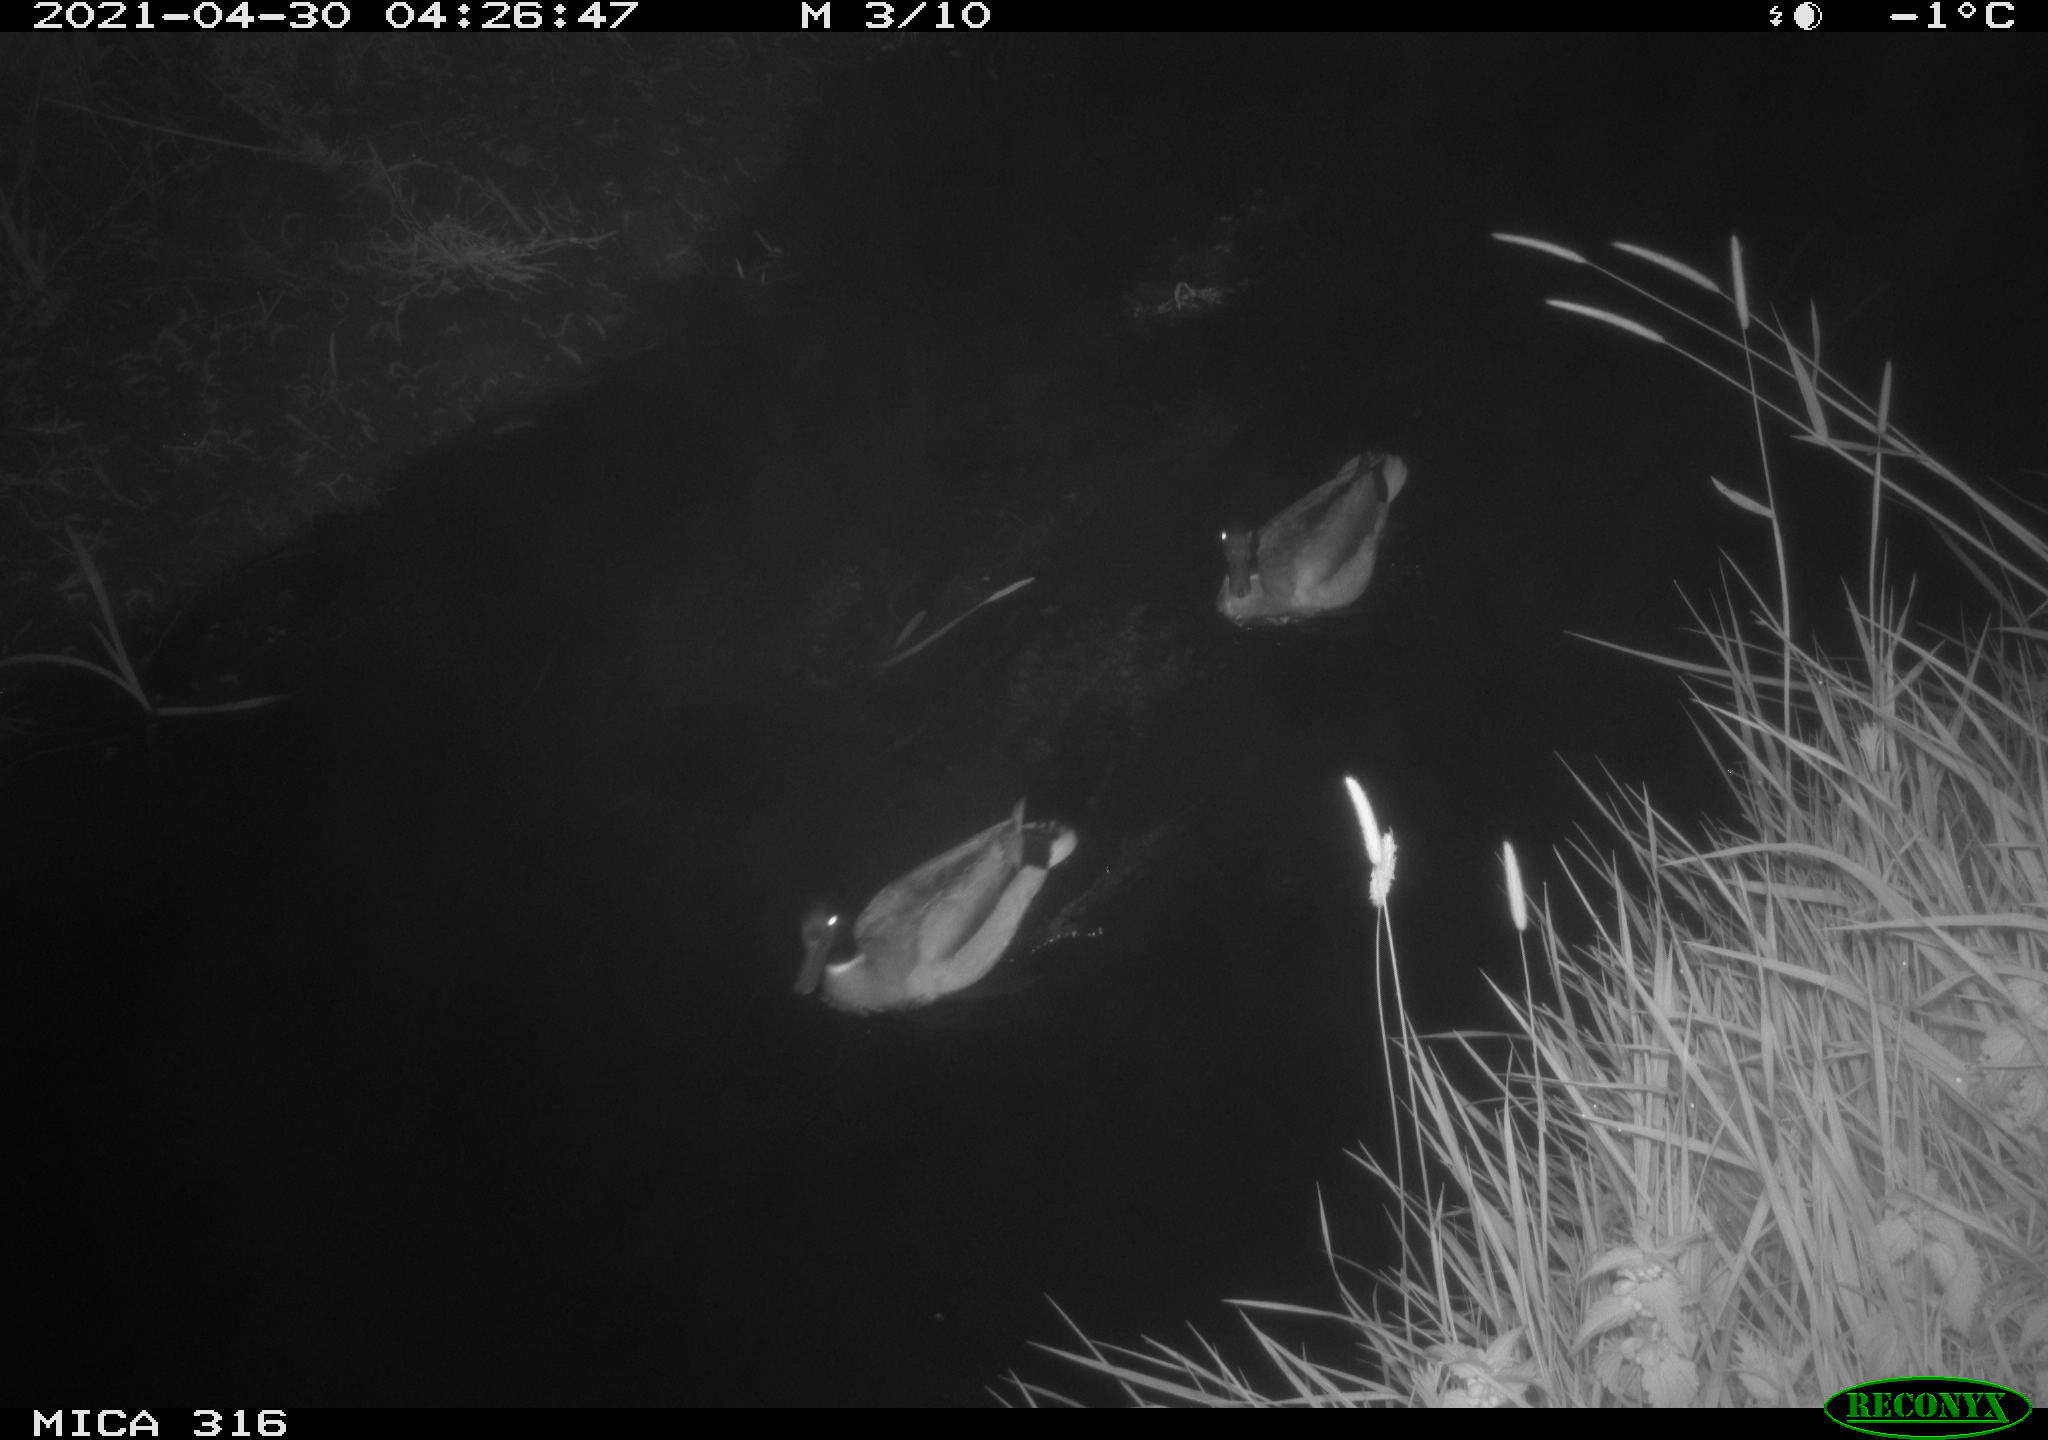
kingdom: Animalia
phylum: Chordata
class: Aves
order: Anseriformes
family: Anatidae
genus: Anas
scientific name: Anas platyrhynchos
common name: Mallard
